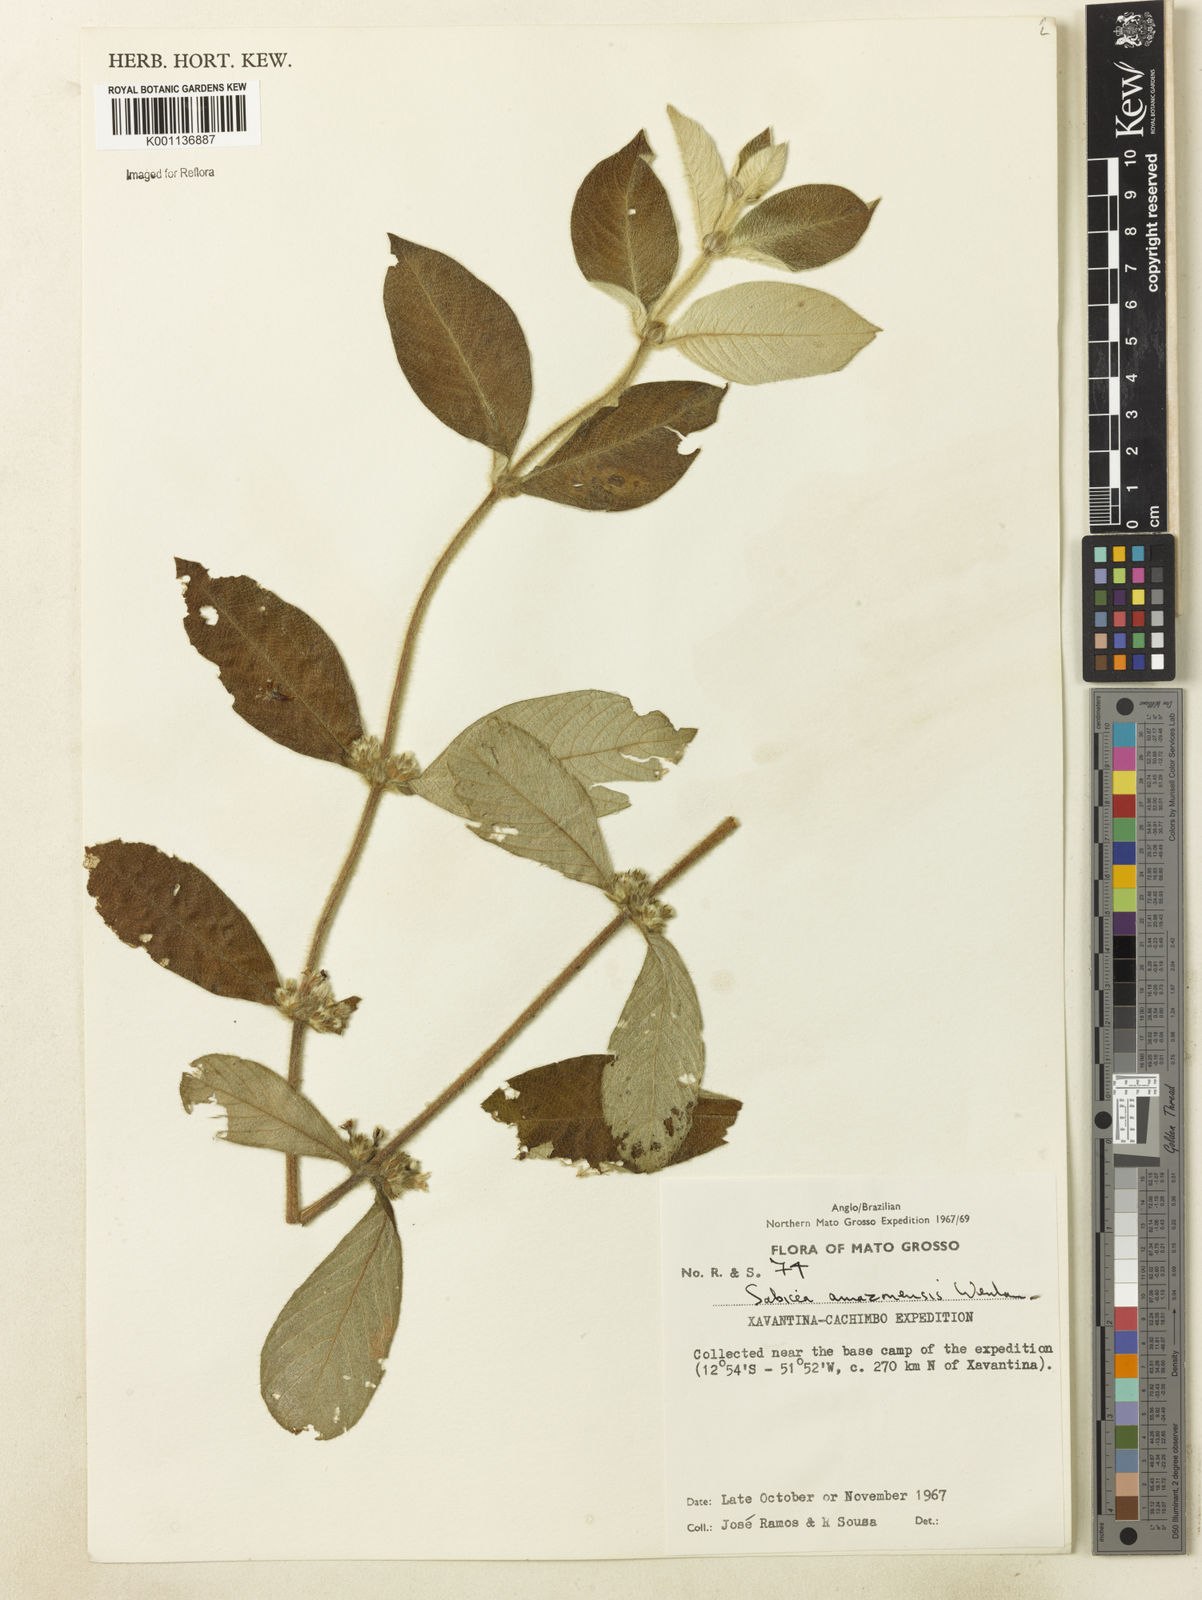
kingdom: Plantae
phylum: Tracheophyta
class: Magnoliopsida
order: Gentianales
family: Rubiaceae
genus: Sabicea
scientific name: Sabicea amazonensis
